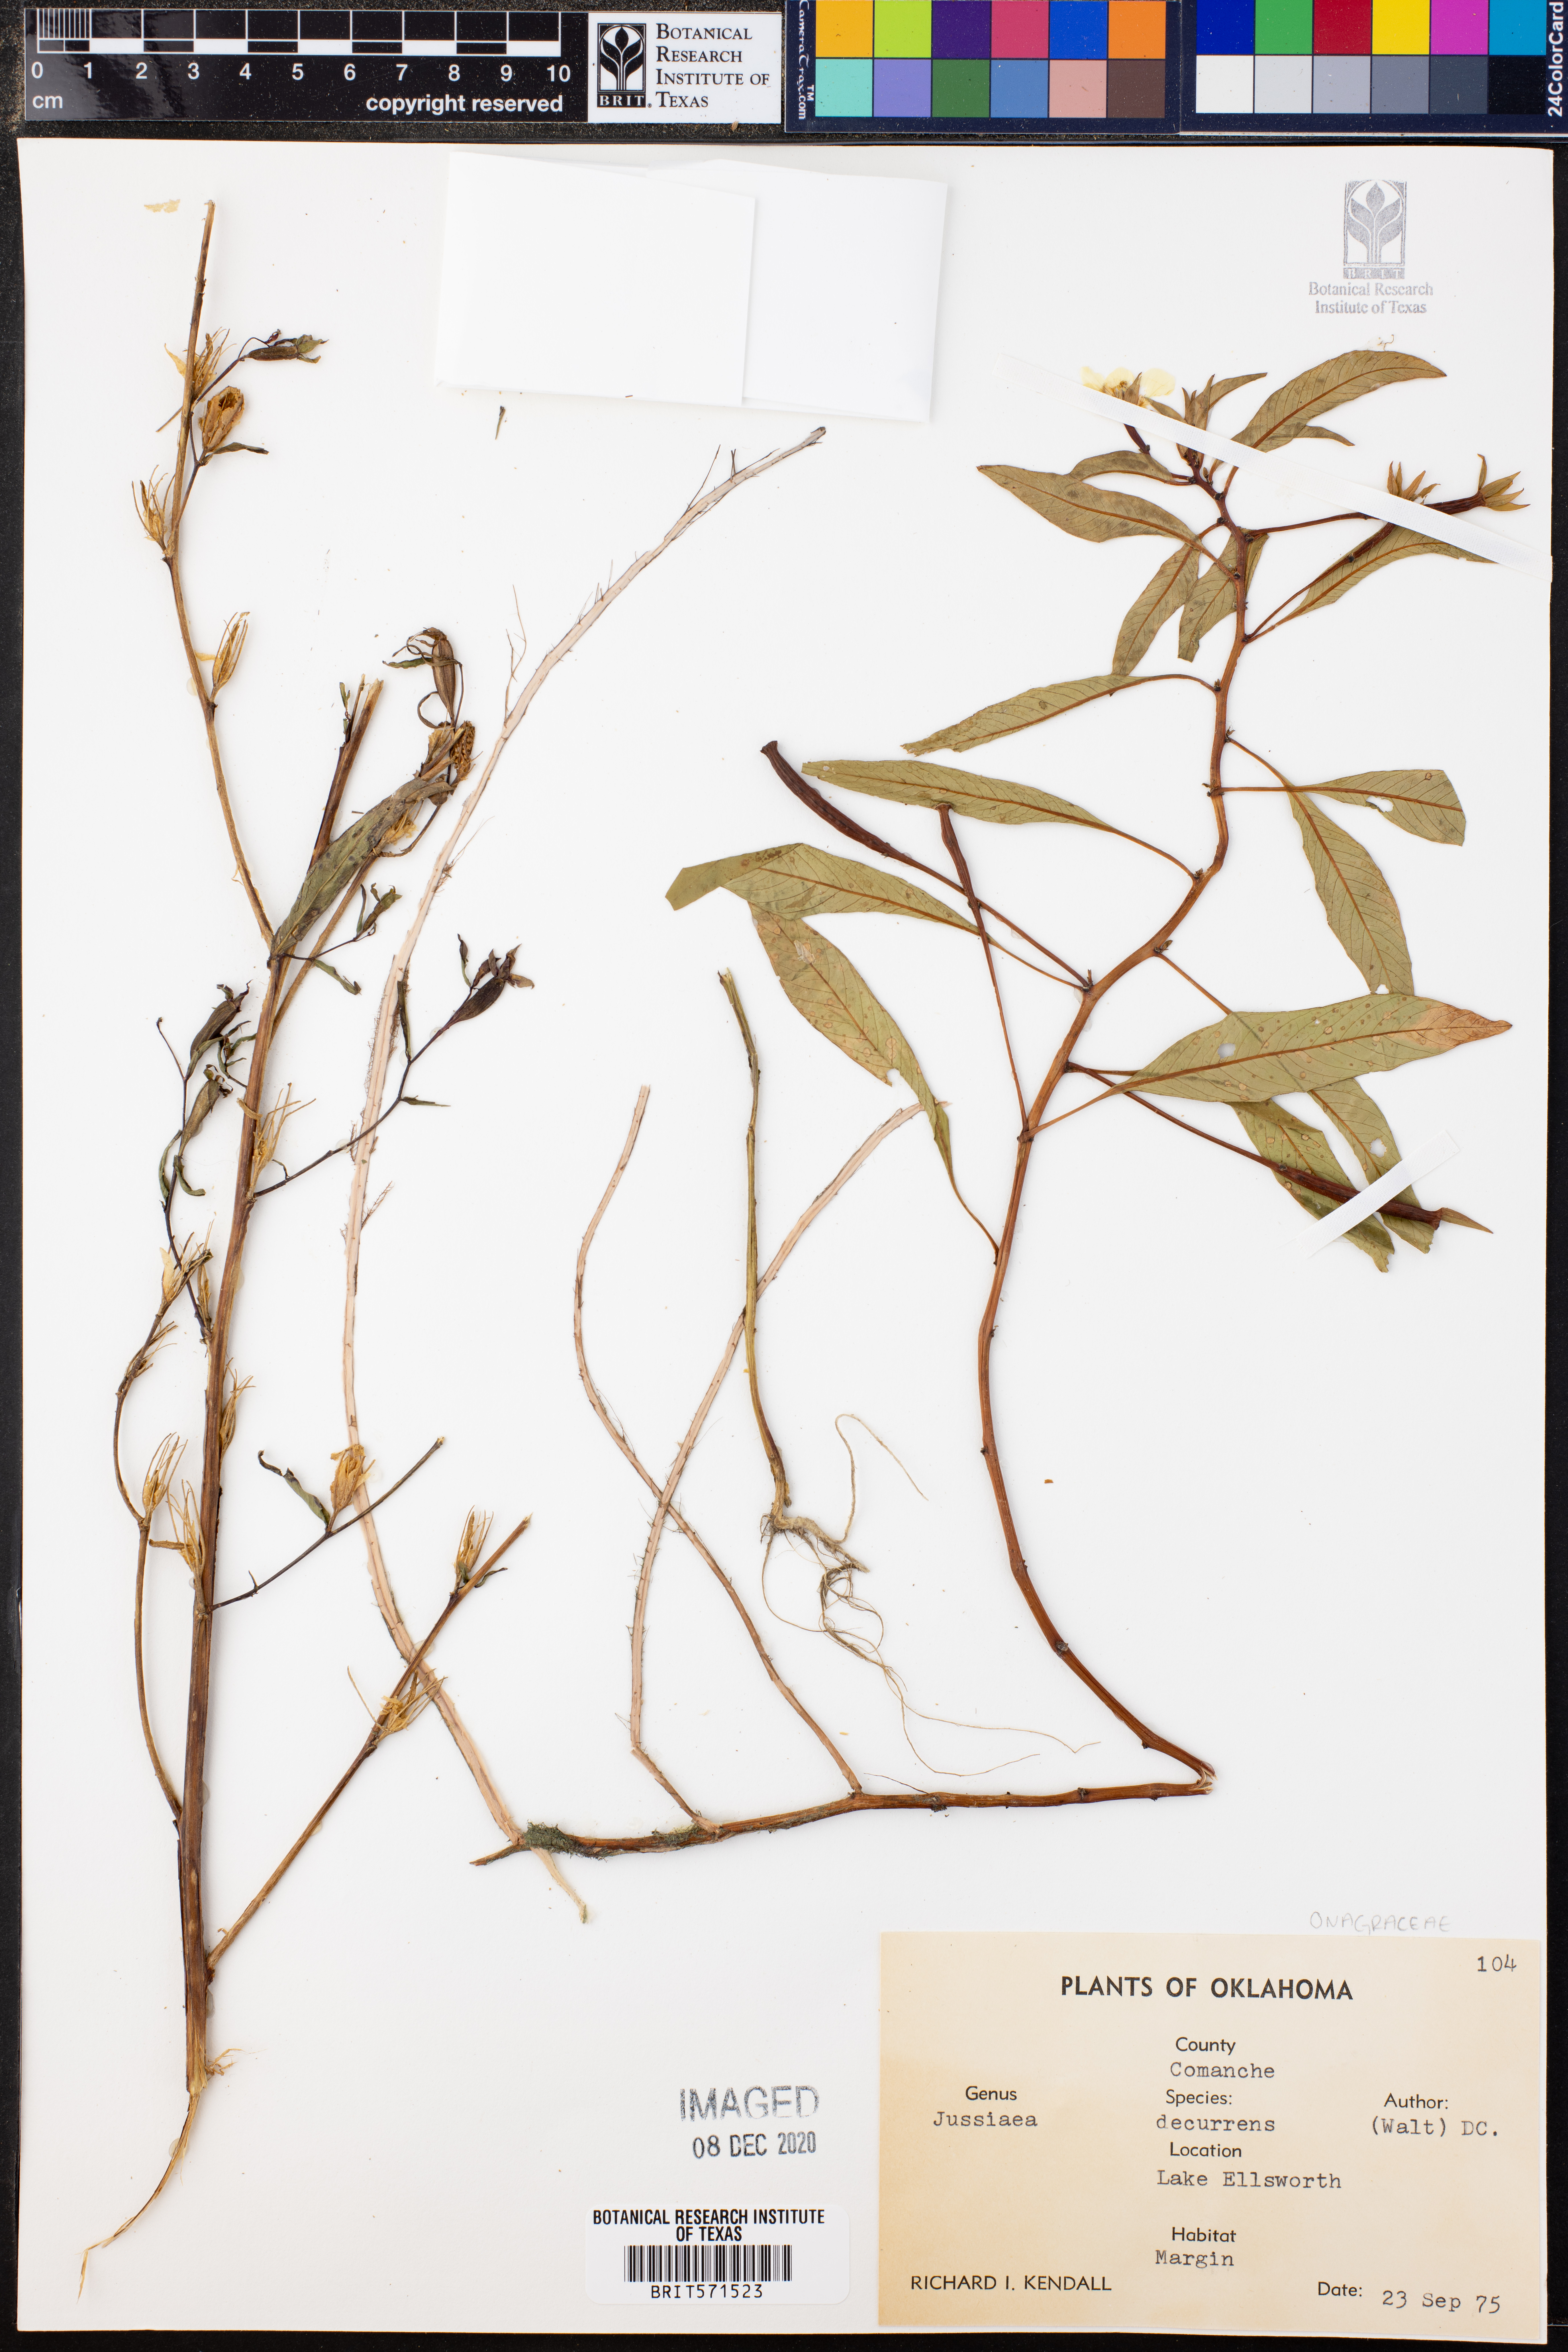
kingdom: Plantae
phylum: Tracheophyta
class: Magnoliopsida
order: Myrtales
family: Onagraceae
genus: Ludwigia
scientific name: Ludwigia decurrens
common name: Winged water-primrose
